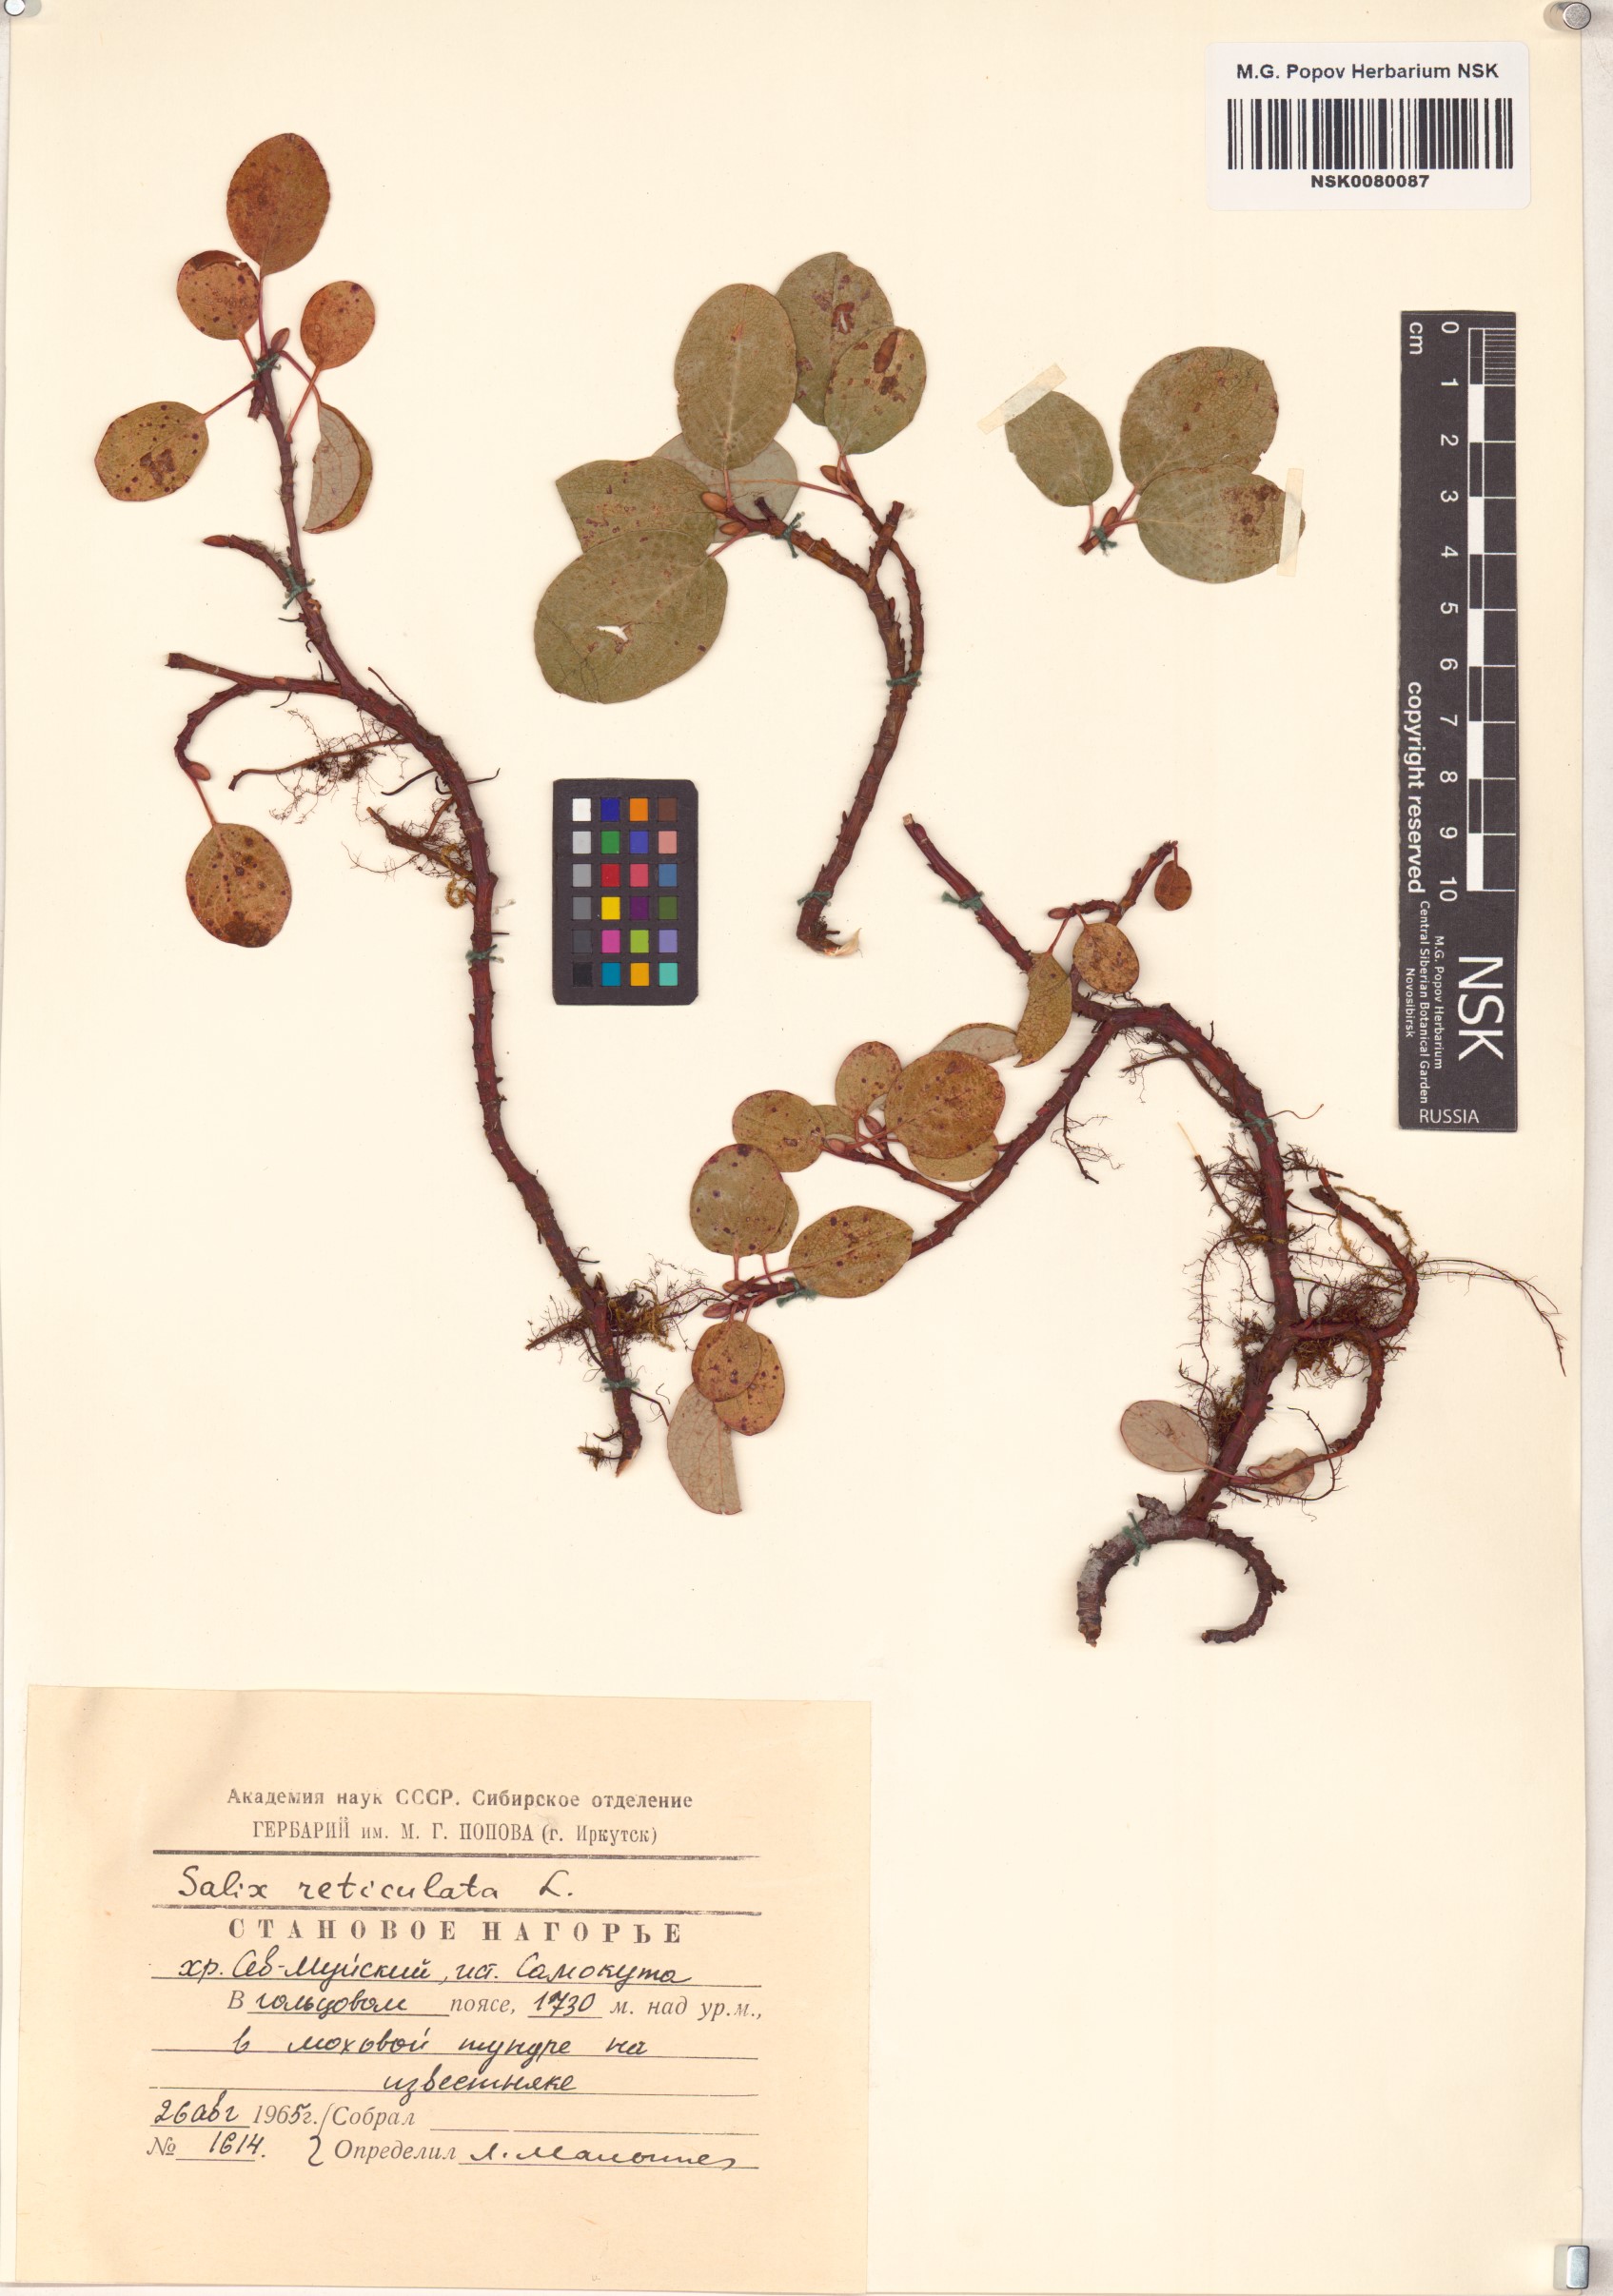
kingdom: Plantae
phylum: Tracheophyta
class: Magnoliopsida
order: Malpighiales
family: Salicaceae
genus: Salix
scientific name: Salix reticulata
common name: Net-leaved willow
